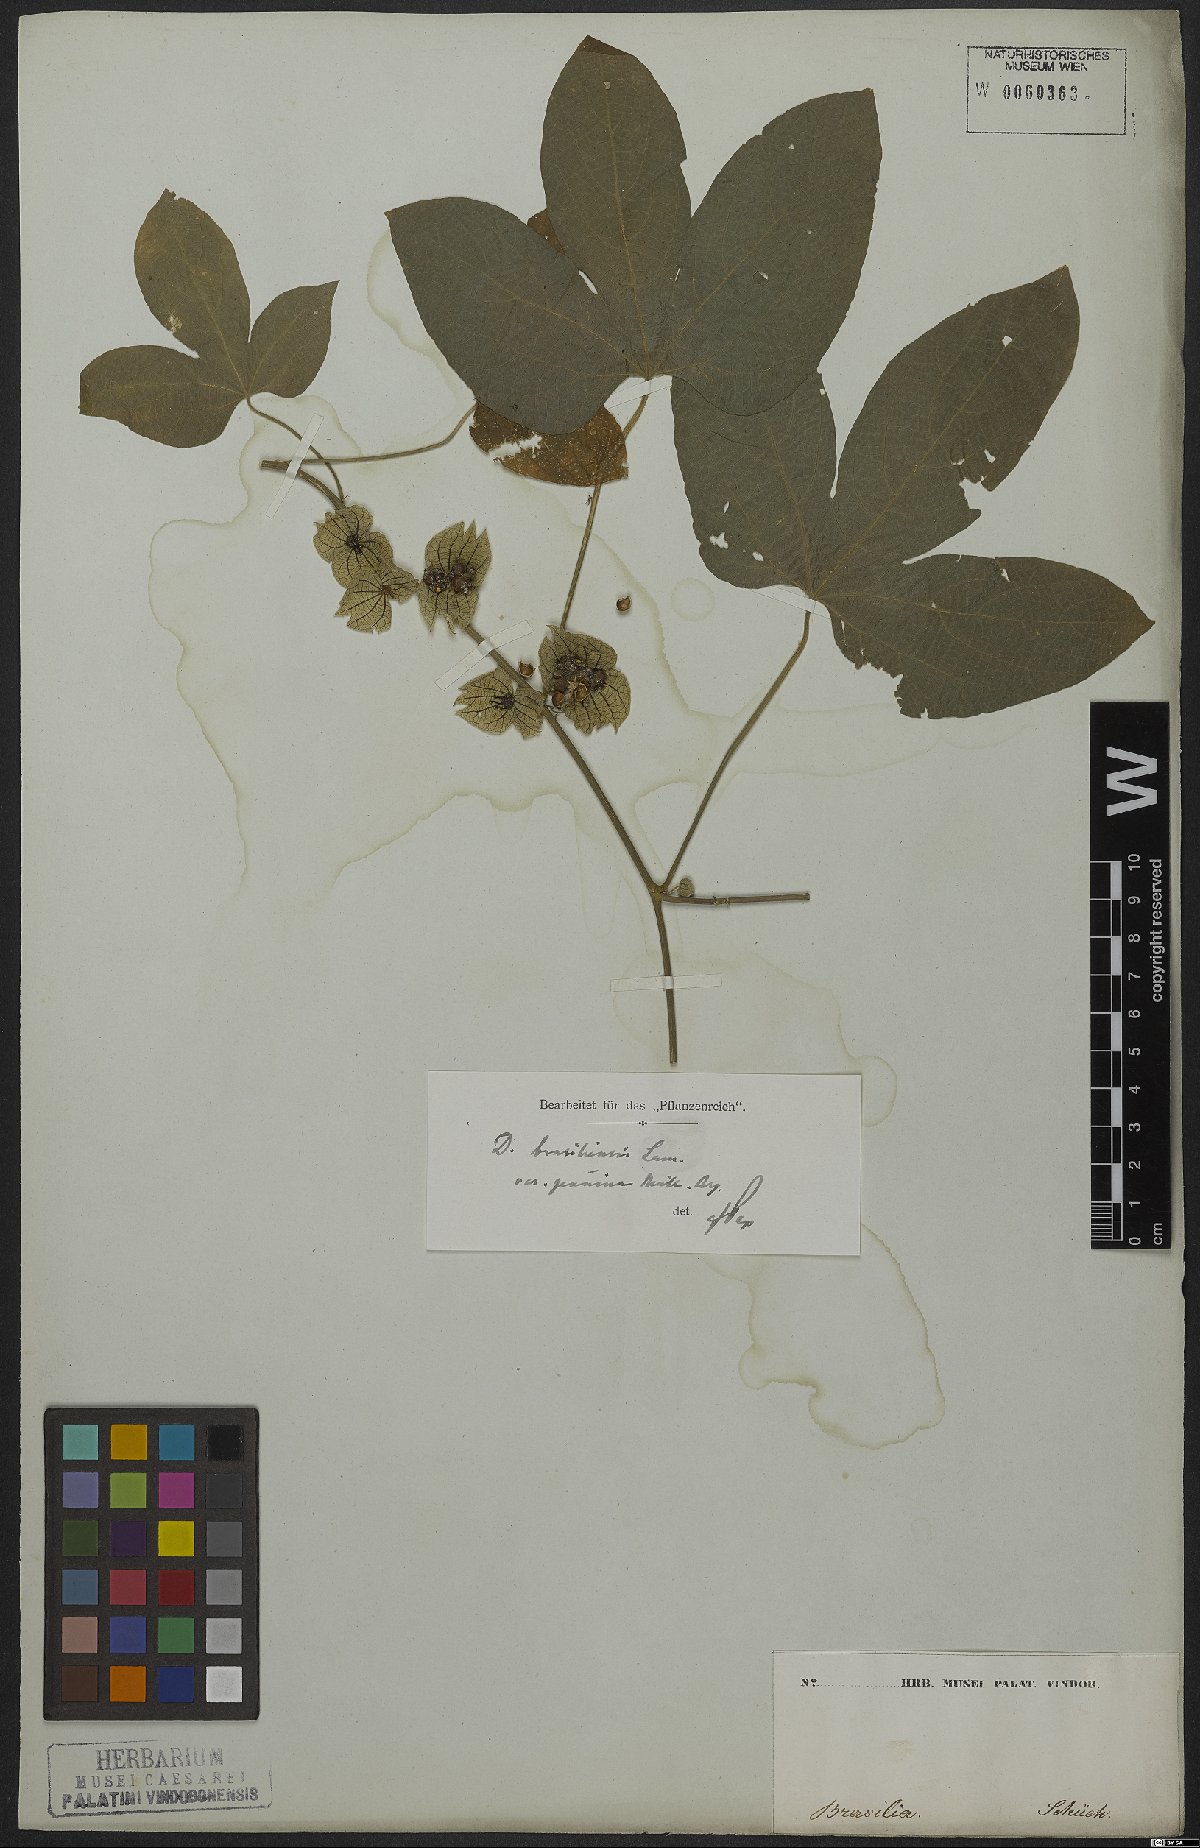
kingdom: Plantae
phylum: Tracheophyta
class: Magnoliopsida
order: Malpighiales
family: Euphorbiaceae
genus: Dalechampia
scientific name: Dalechampia brasiliensis
